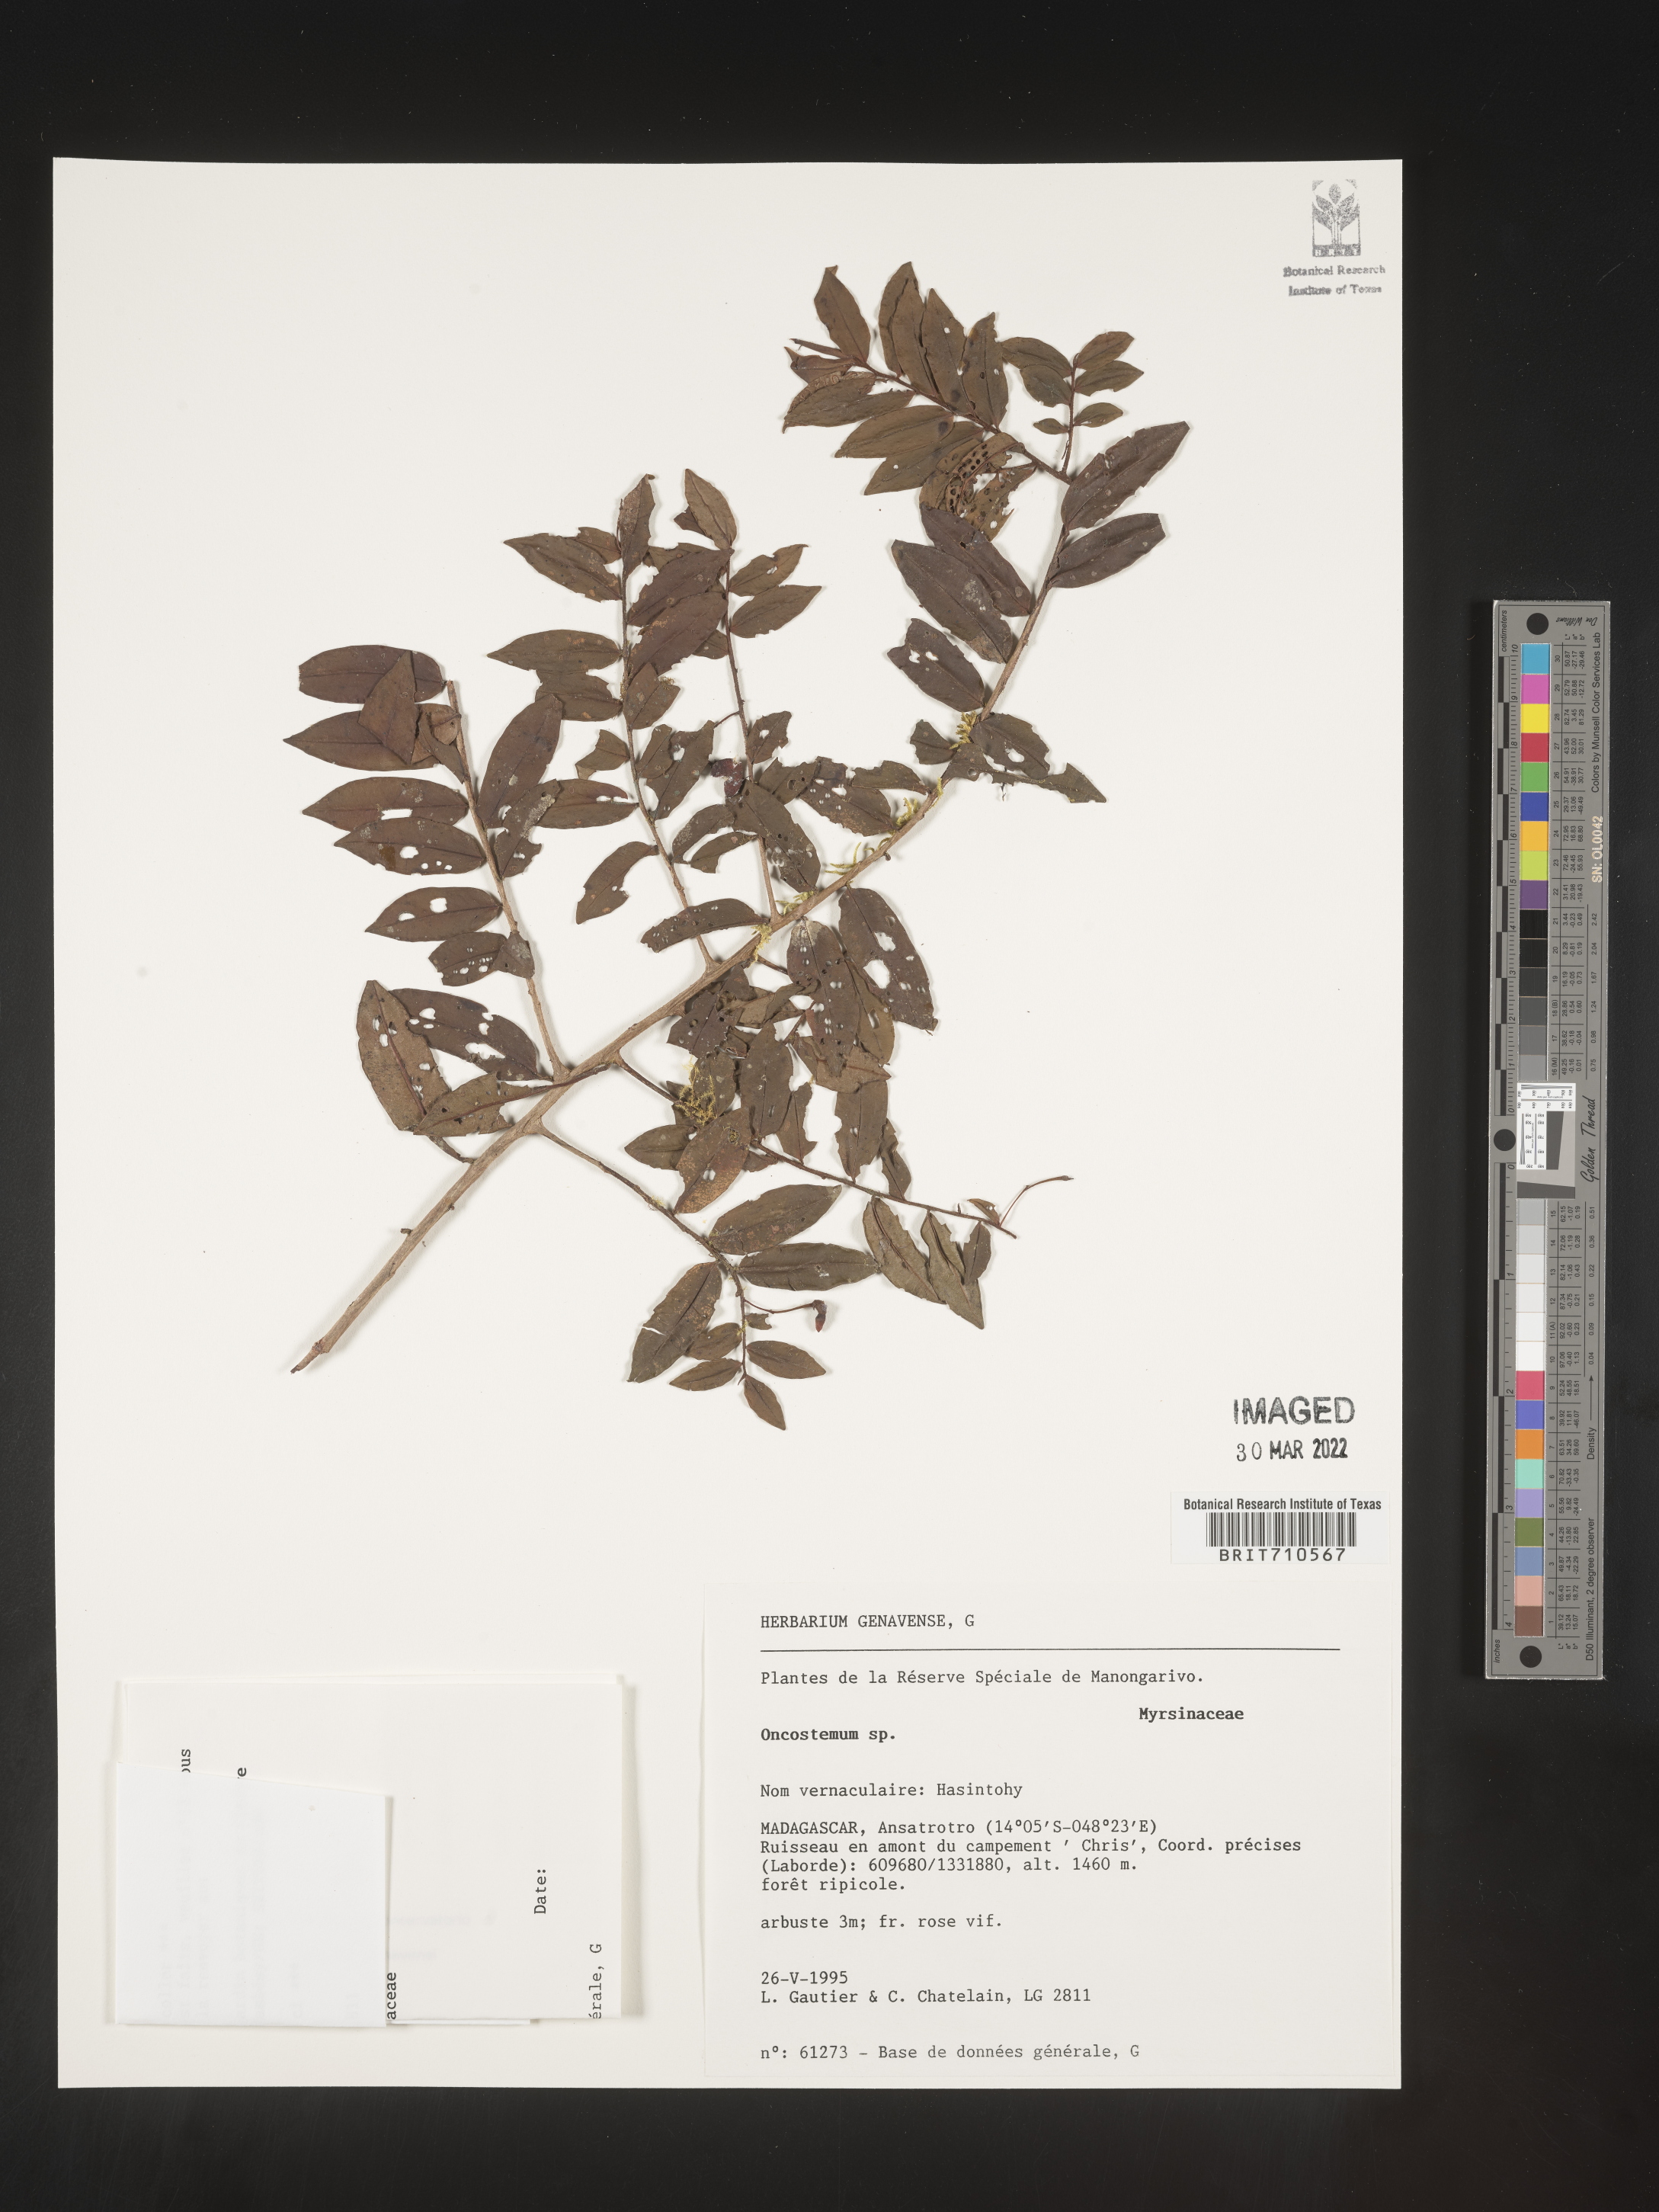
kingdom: Plantae
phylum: Tracheophyta
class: Magnoliopsida
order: Ericales
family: Primulaceae
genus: Oncostemum
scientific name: Oncostemum
